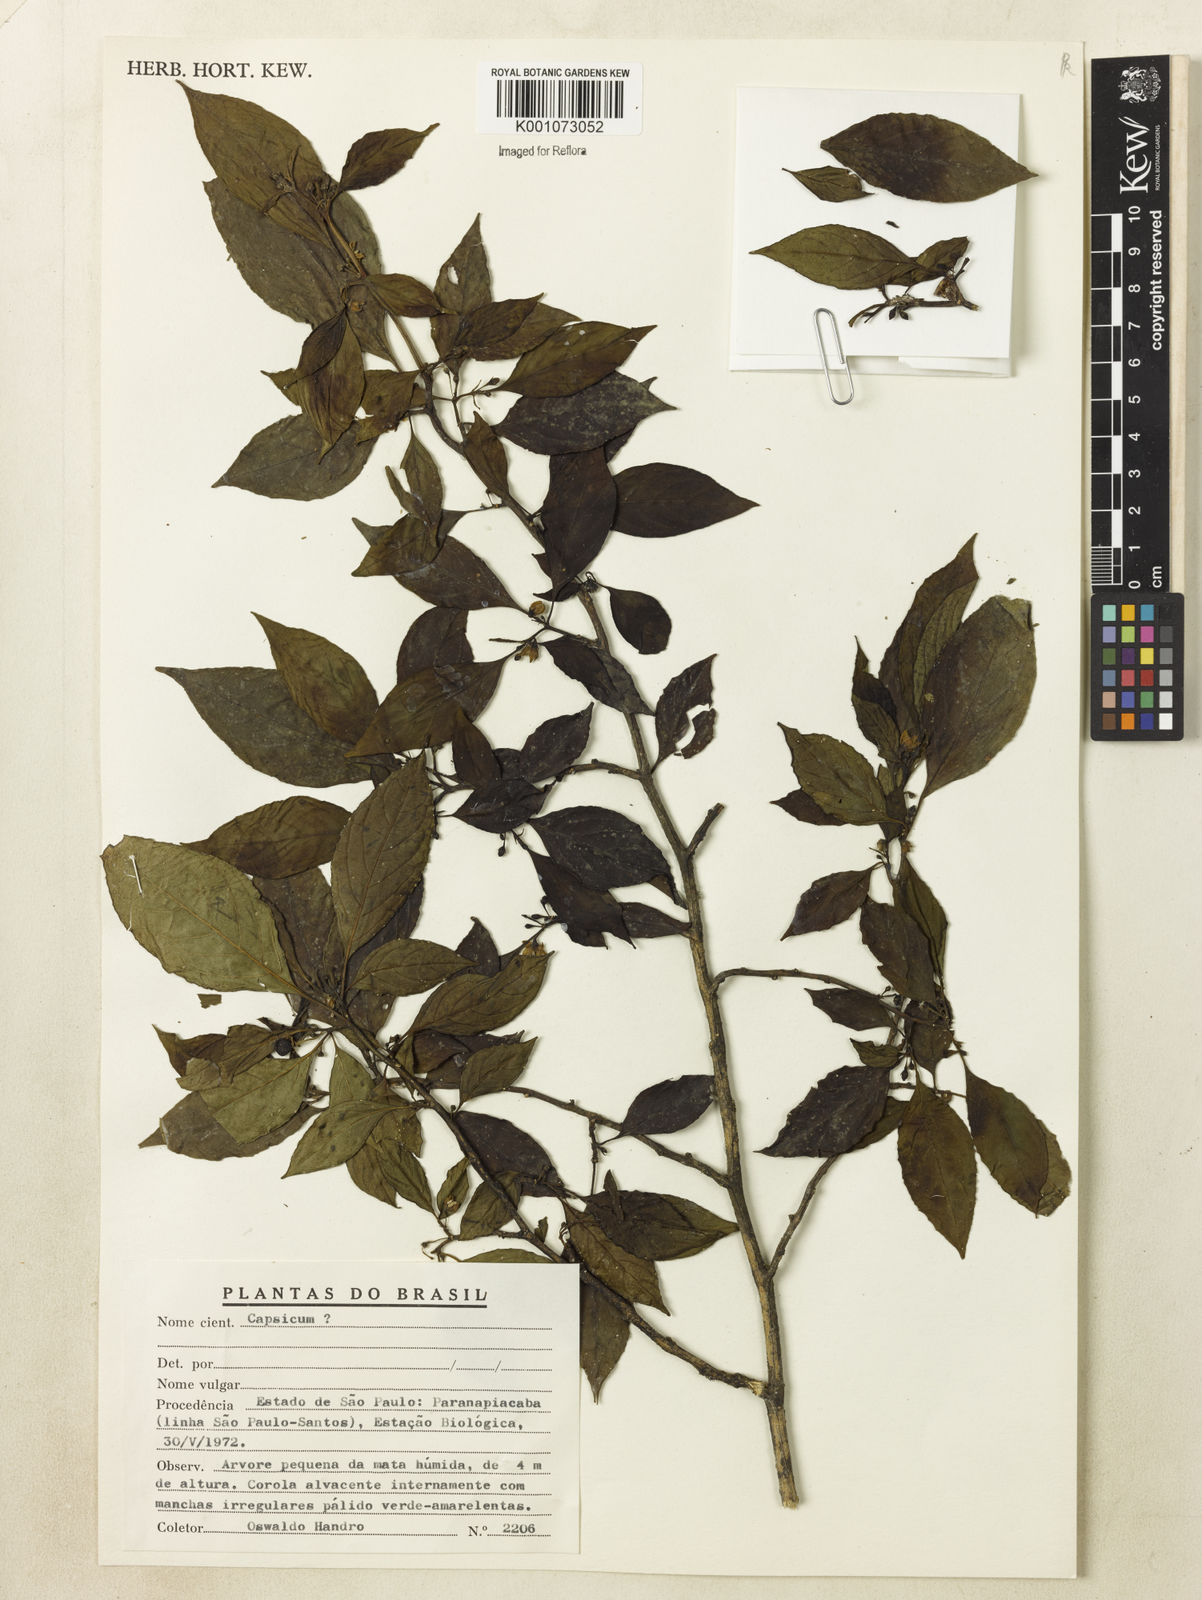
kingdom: Plantae
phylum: Tracheophyta
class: Magnoliopsida
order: Solanales
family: Solanaceae
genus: Capsicum
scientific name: Capsicum
